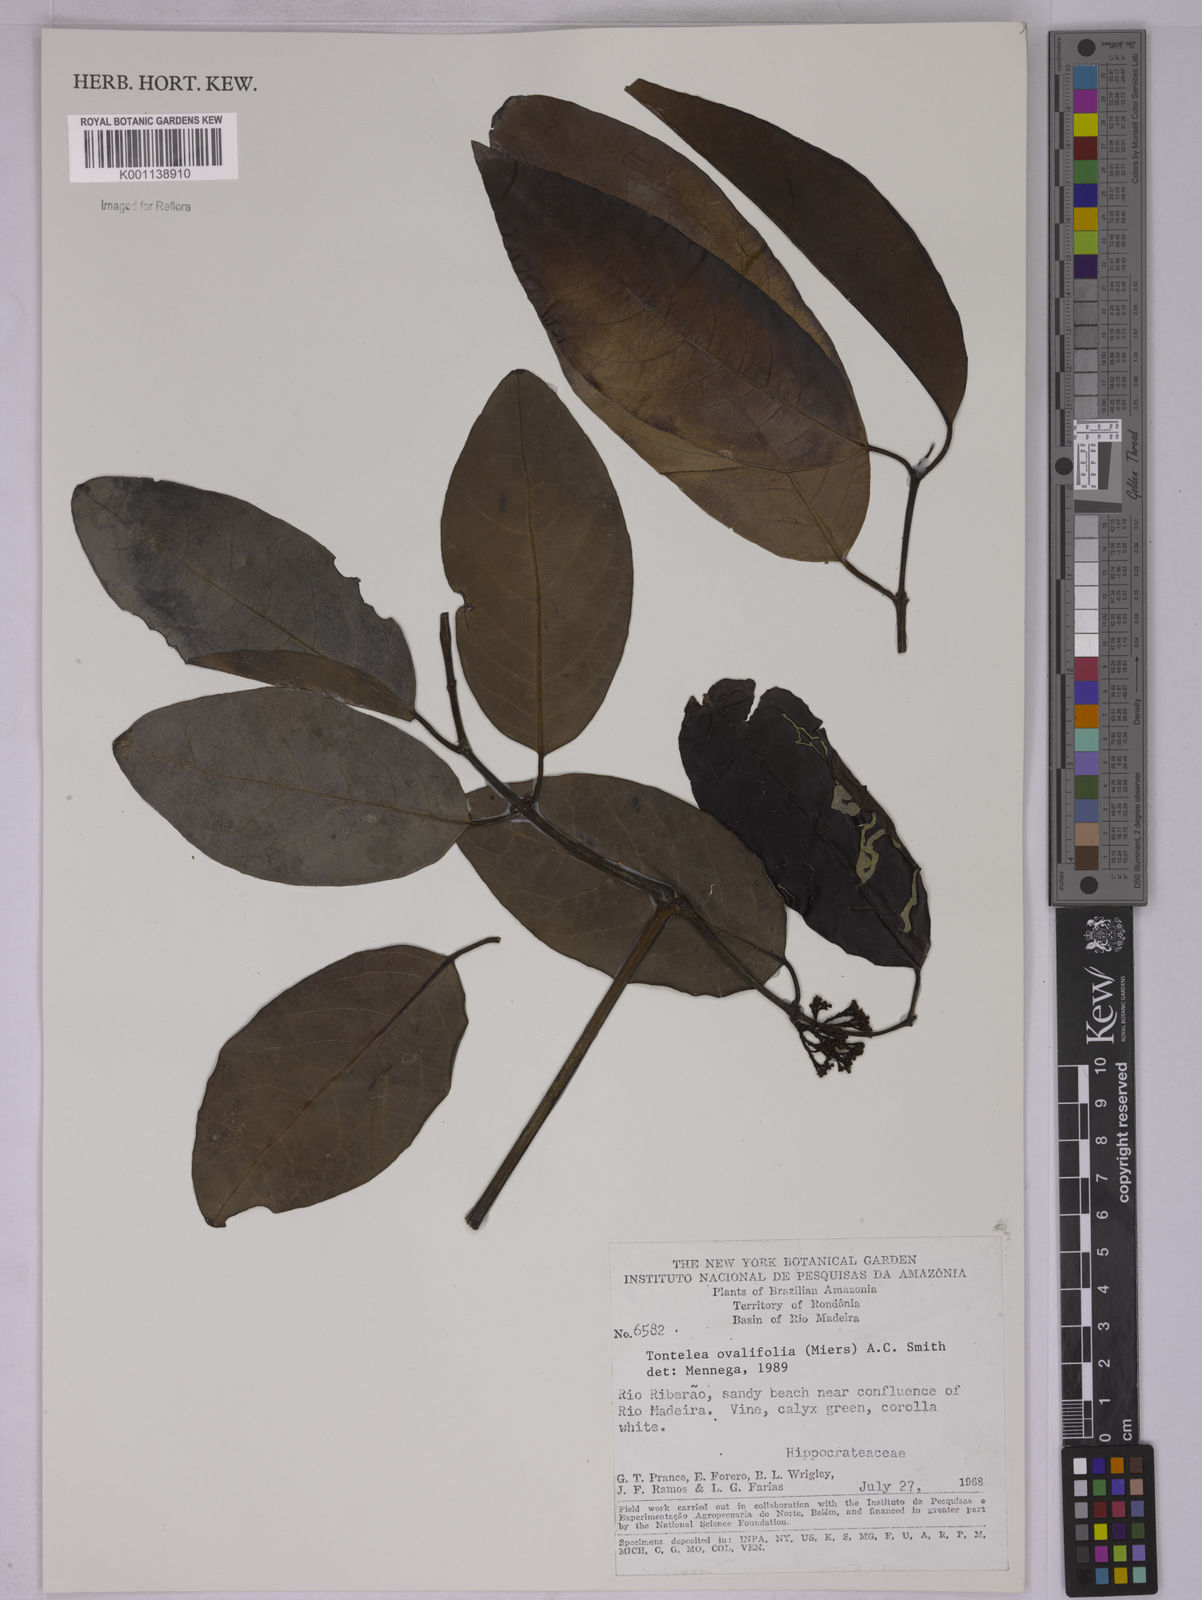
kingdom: Plantae
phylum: Tracheophyta
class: Magnoliopsida
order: Celastrales
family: Celastraceae
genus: Tontelea
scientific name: Tontelea passiflora
